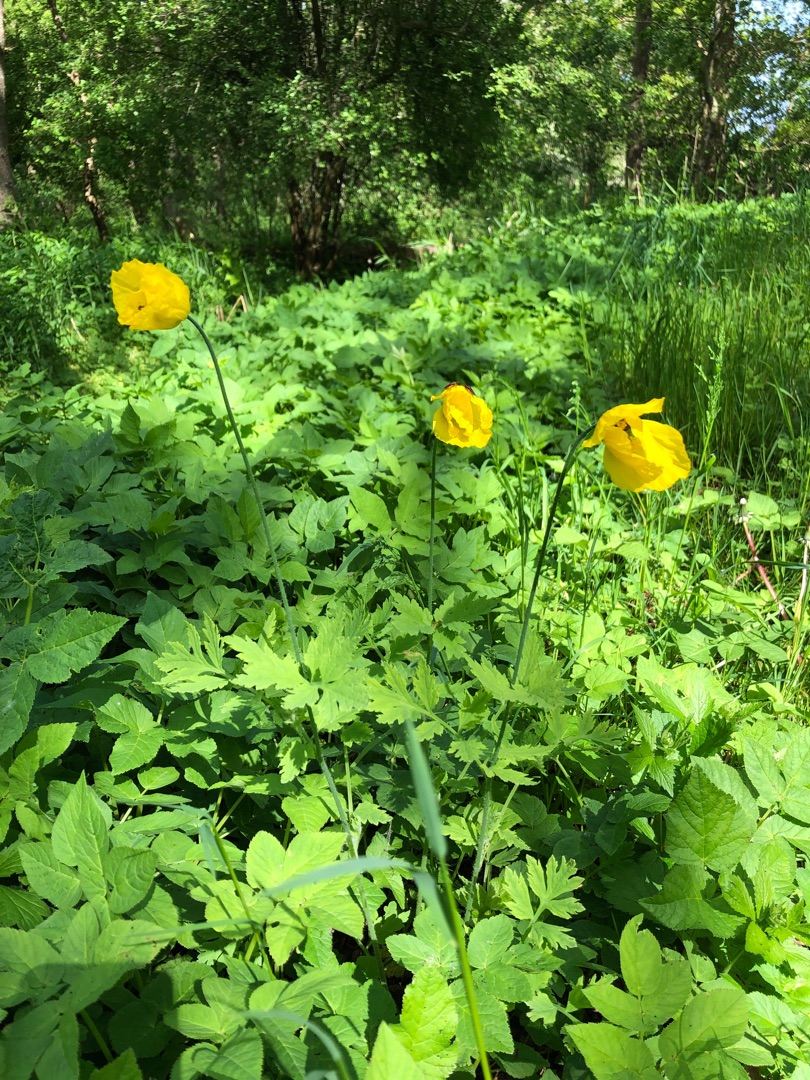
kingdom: Plantae
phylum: Tracheophyta
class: Magnoliopsida
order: Ranunculales
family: Papaveraceae
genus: Papaver
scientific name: Papaver cambricum
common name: Skov-valmue
